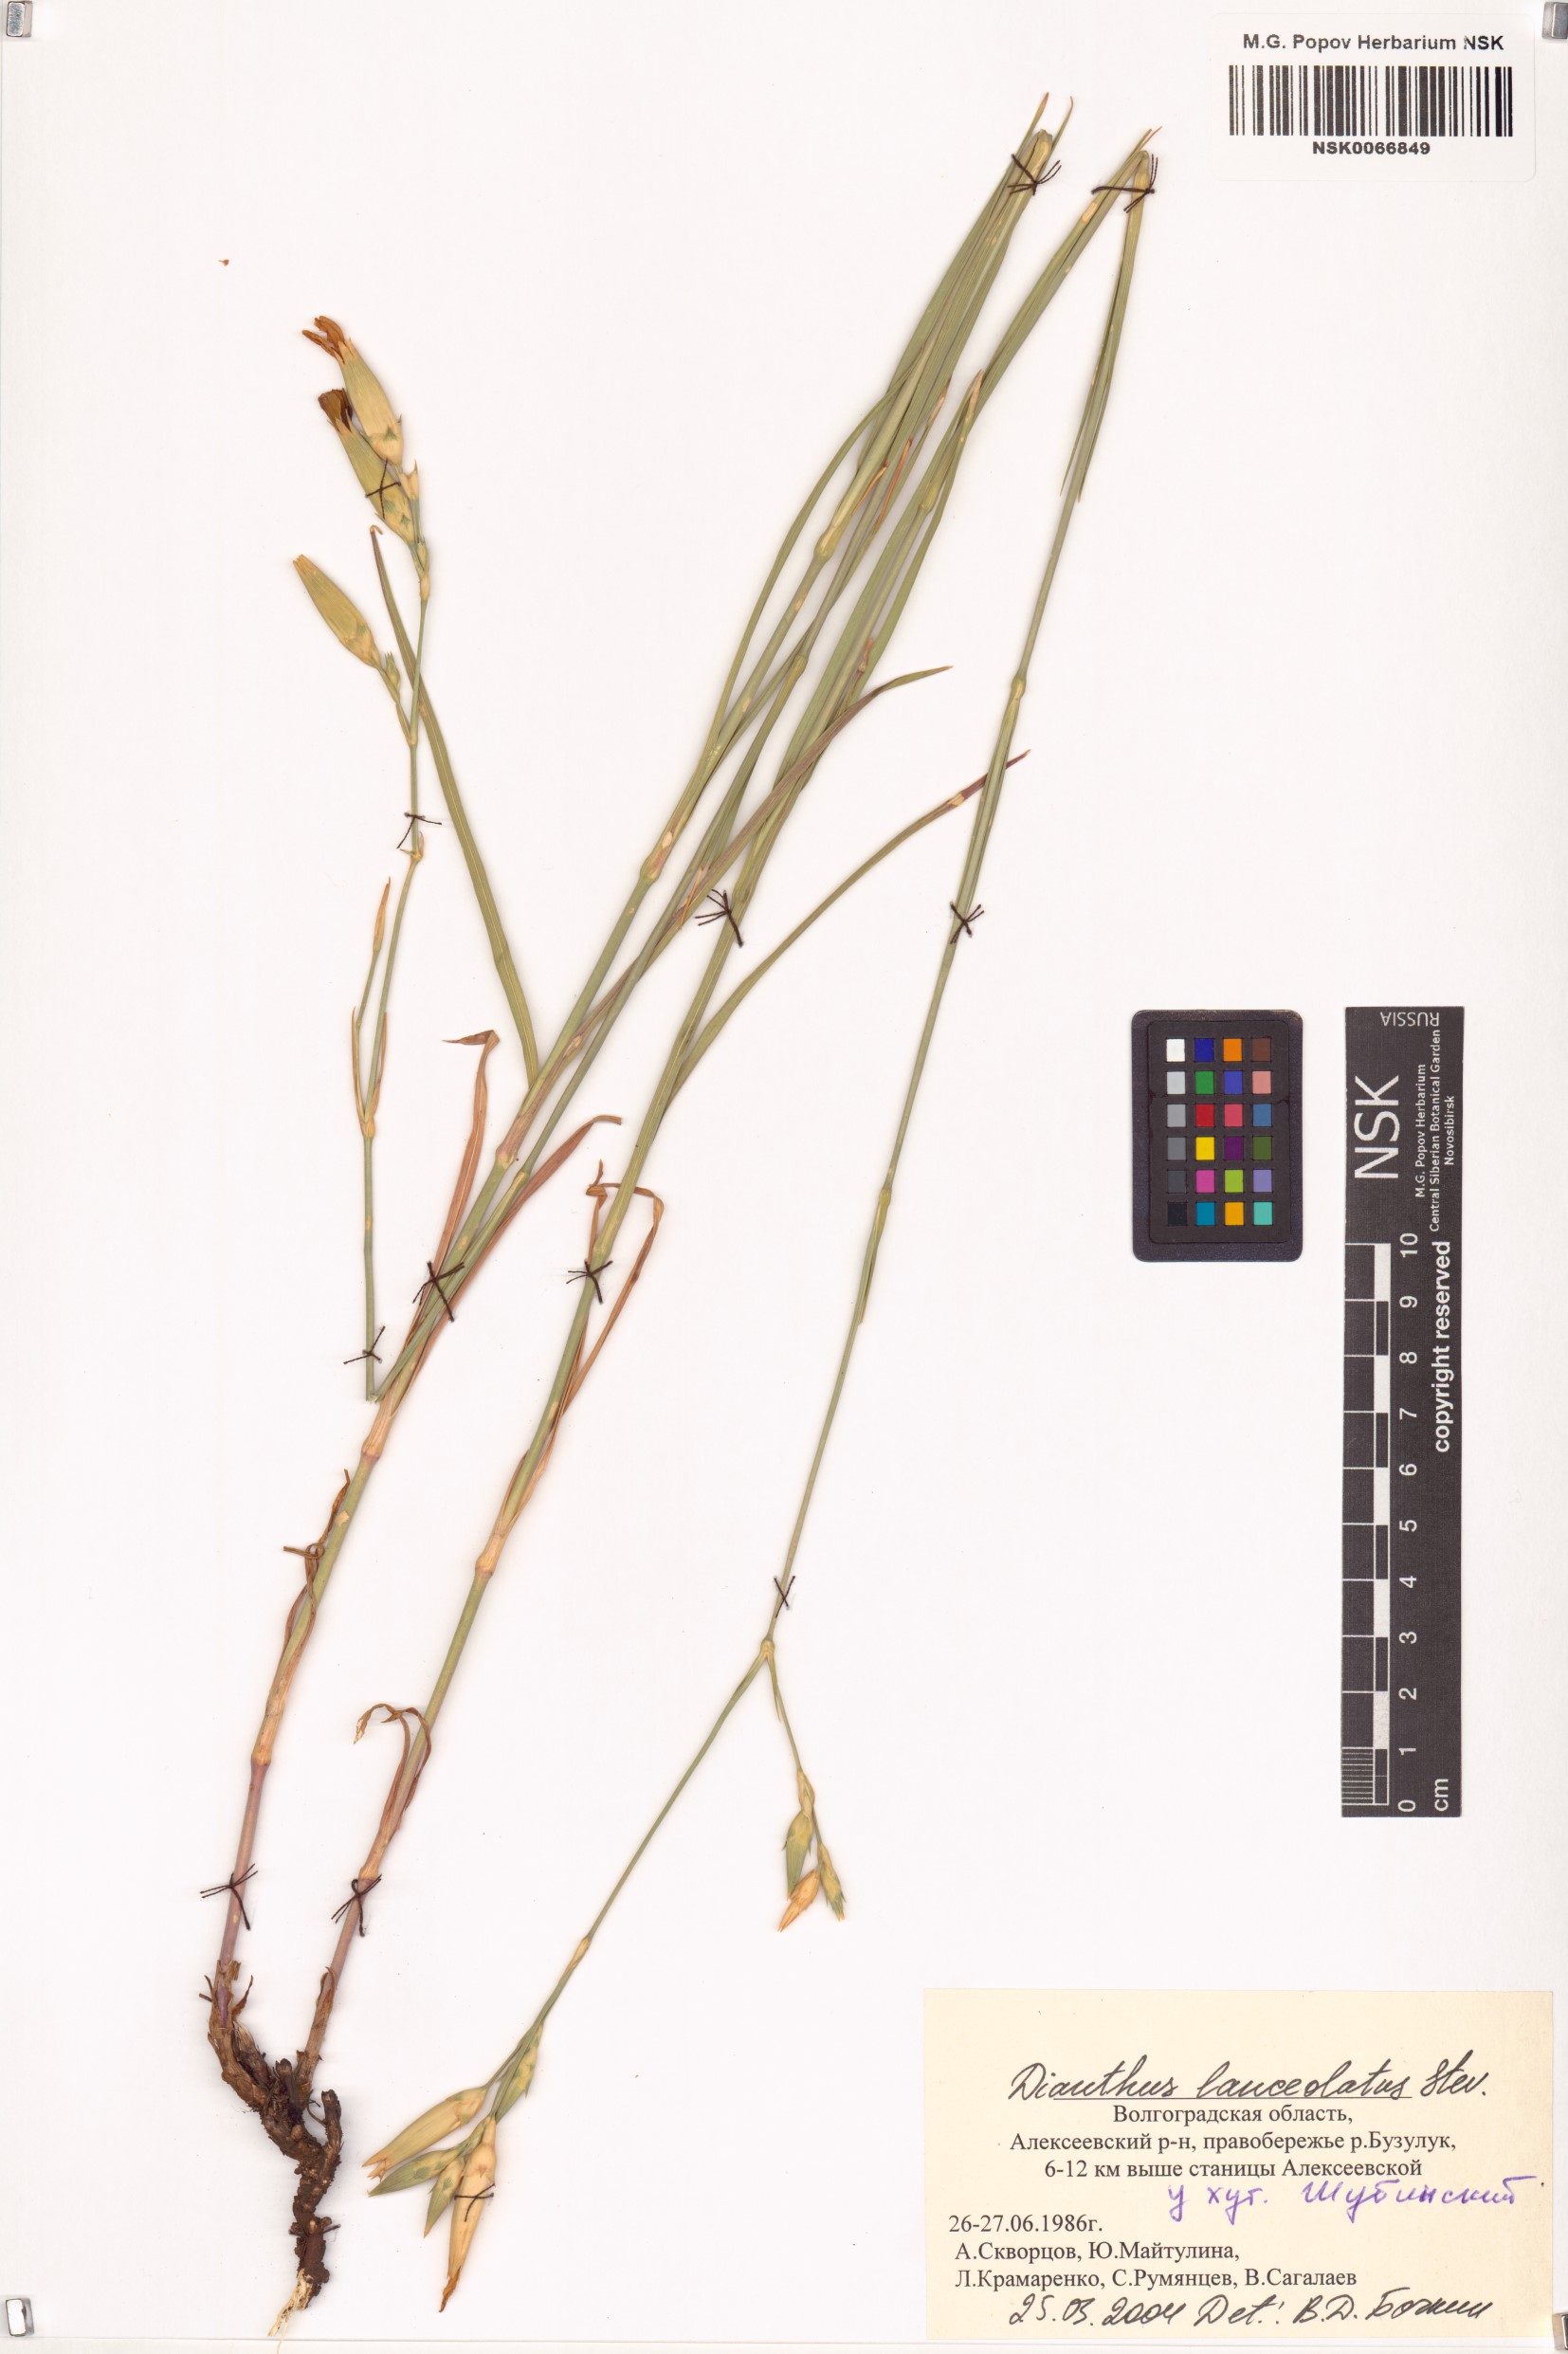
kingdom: Plantae
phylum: Tracheophyta
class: Magnoliopsida
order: Caryophyllales
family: Caryophyllaceae
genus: Dianthus
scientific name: Dianthus lanceolatus
